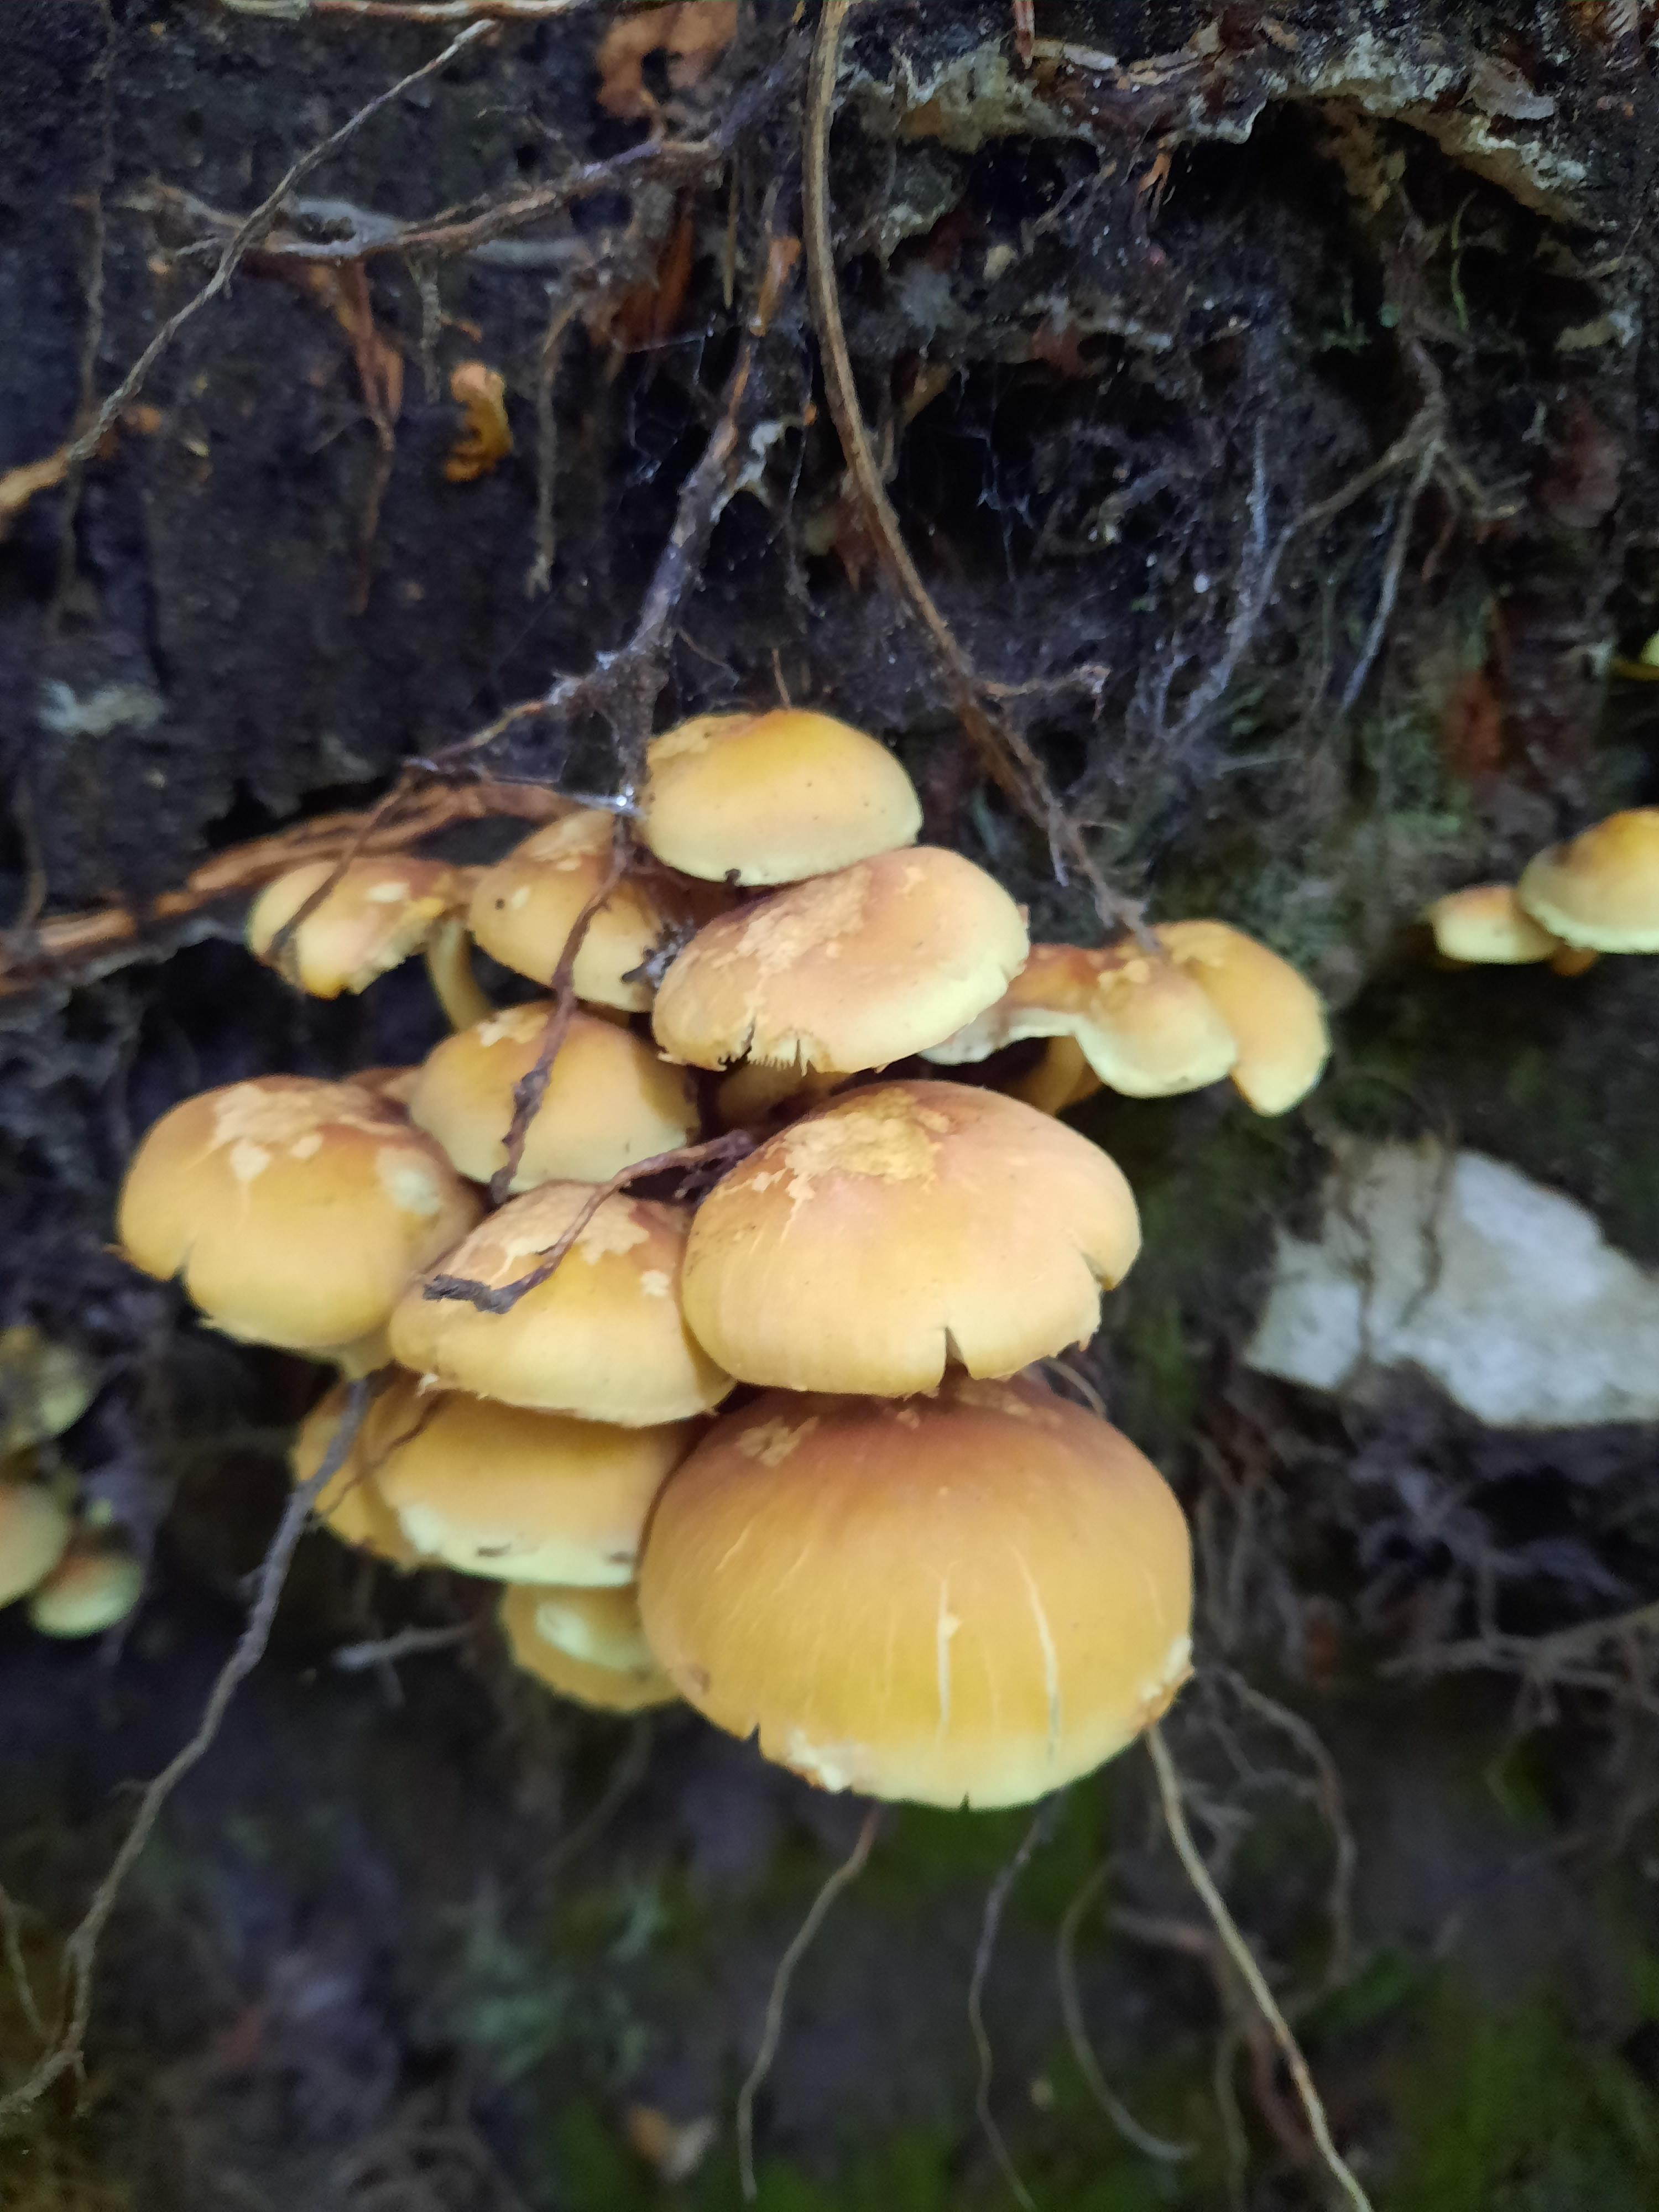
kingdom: Fungi
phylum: Basidiomycota
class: Agaricomycetes
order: Agaricales
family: Strophariaceae
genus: Hypholoma
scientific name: Hypholoma fasciculare
